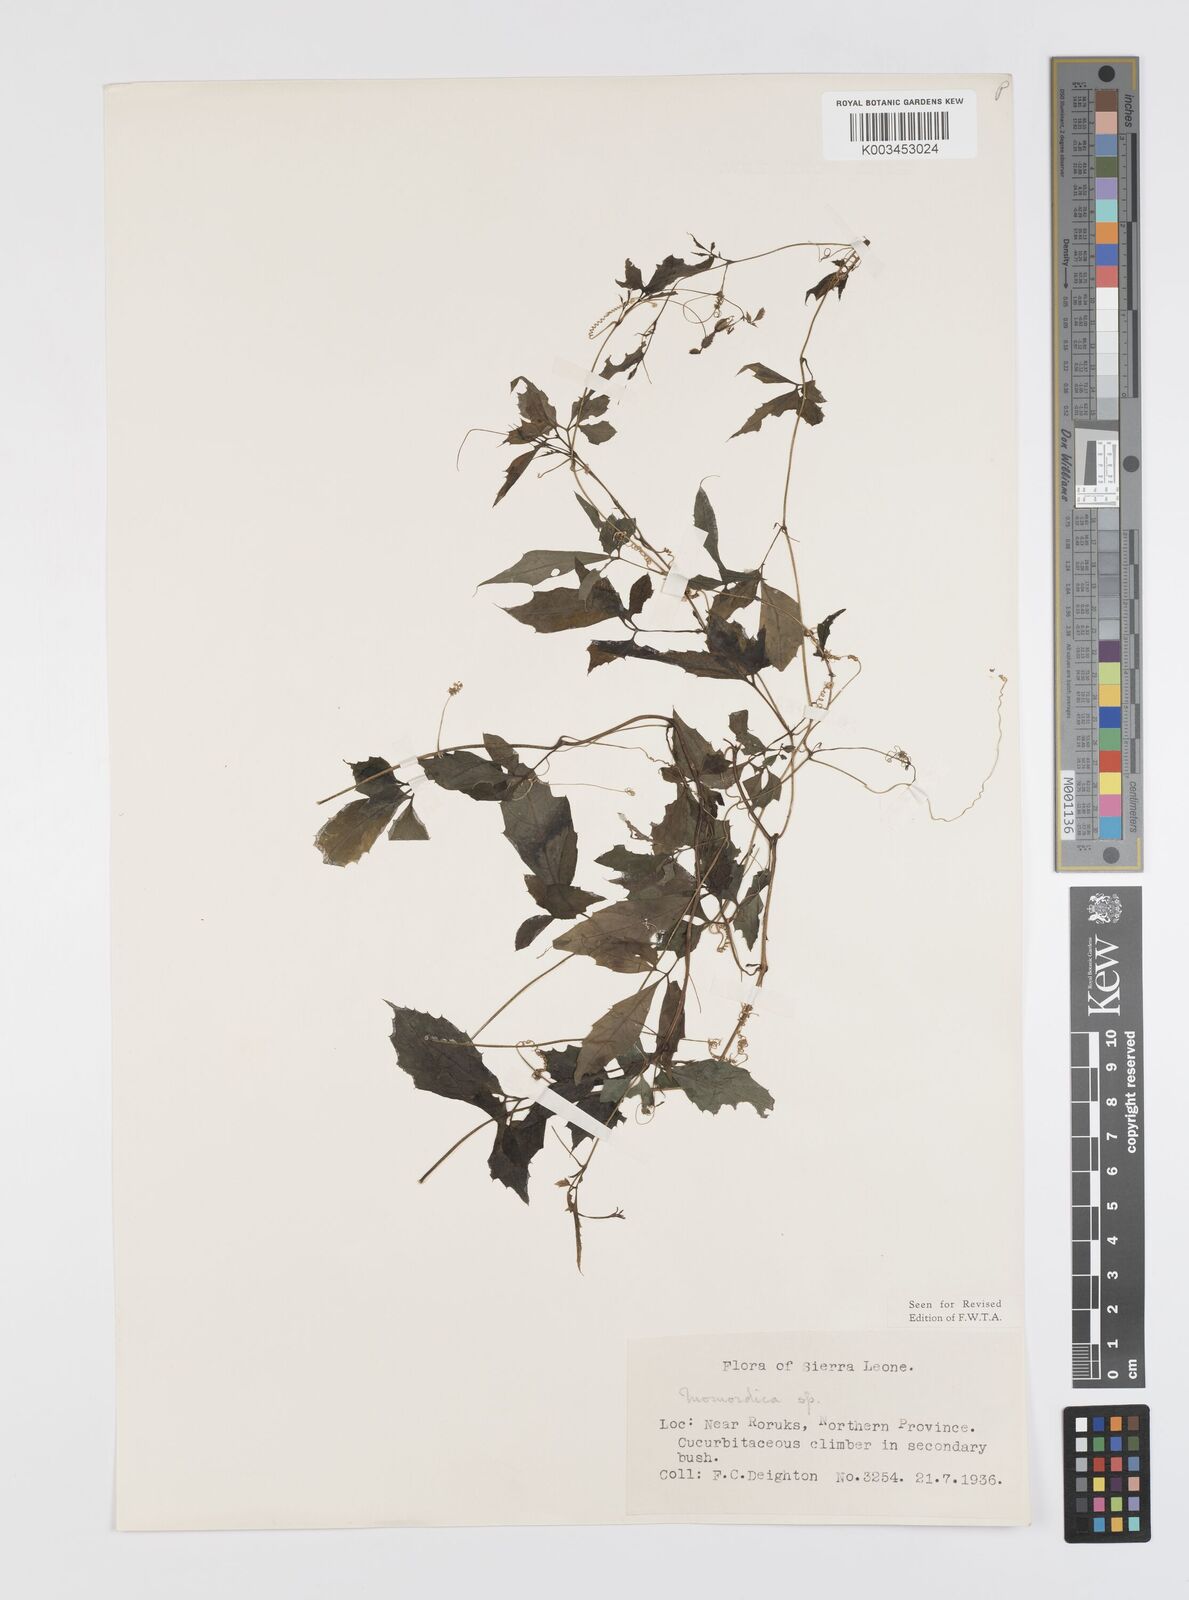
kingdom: Plantae
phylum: Tracheophyta
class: Magnoliopsida
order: Cucurbitales
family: Cucurbitaceae
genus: Momordica
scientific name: Momordica cissoides
